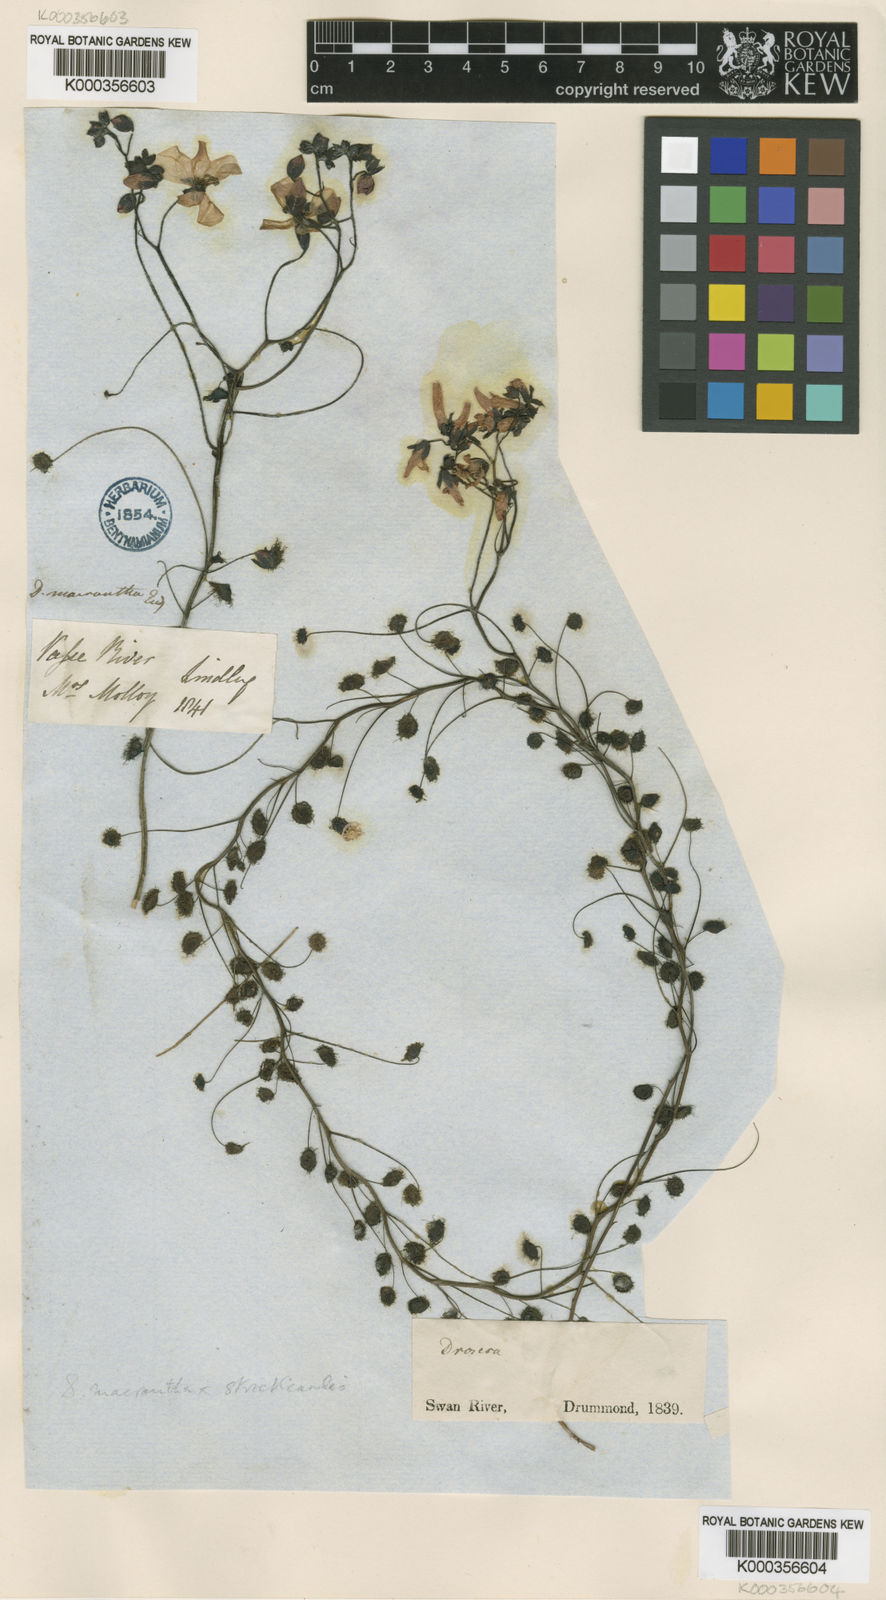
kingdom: Plantae
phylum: Tracheophyta
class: Magnoliopsida
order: Caryophyllales
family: Droseraceae
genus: Drosera
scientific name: Drosera
